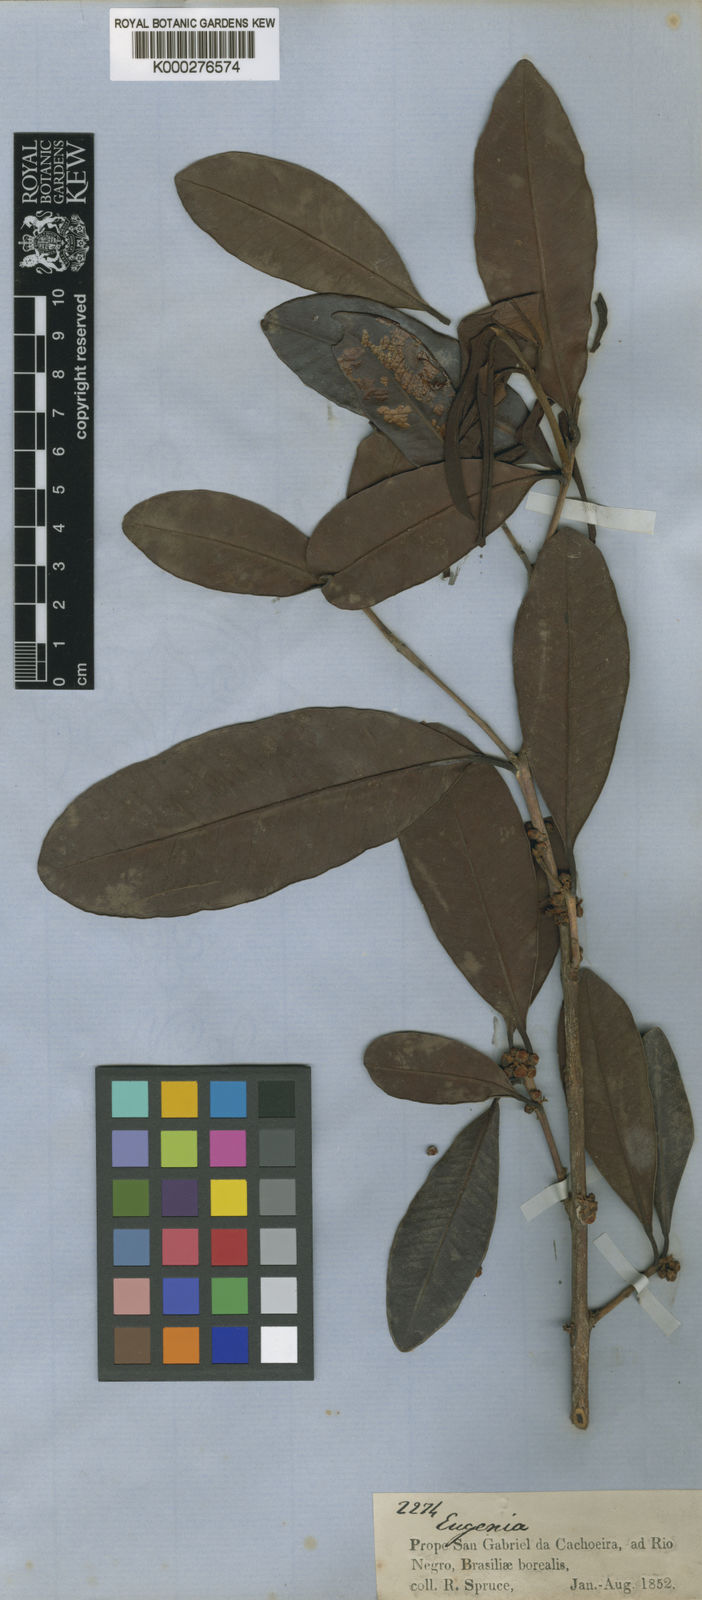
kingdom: Plantae
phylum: Tracheophyta
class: Magnoliopsida
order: Myrtales
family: Myrtaceae
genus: Eugenia
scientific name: Eugenia cachoeirensis
